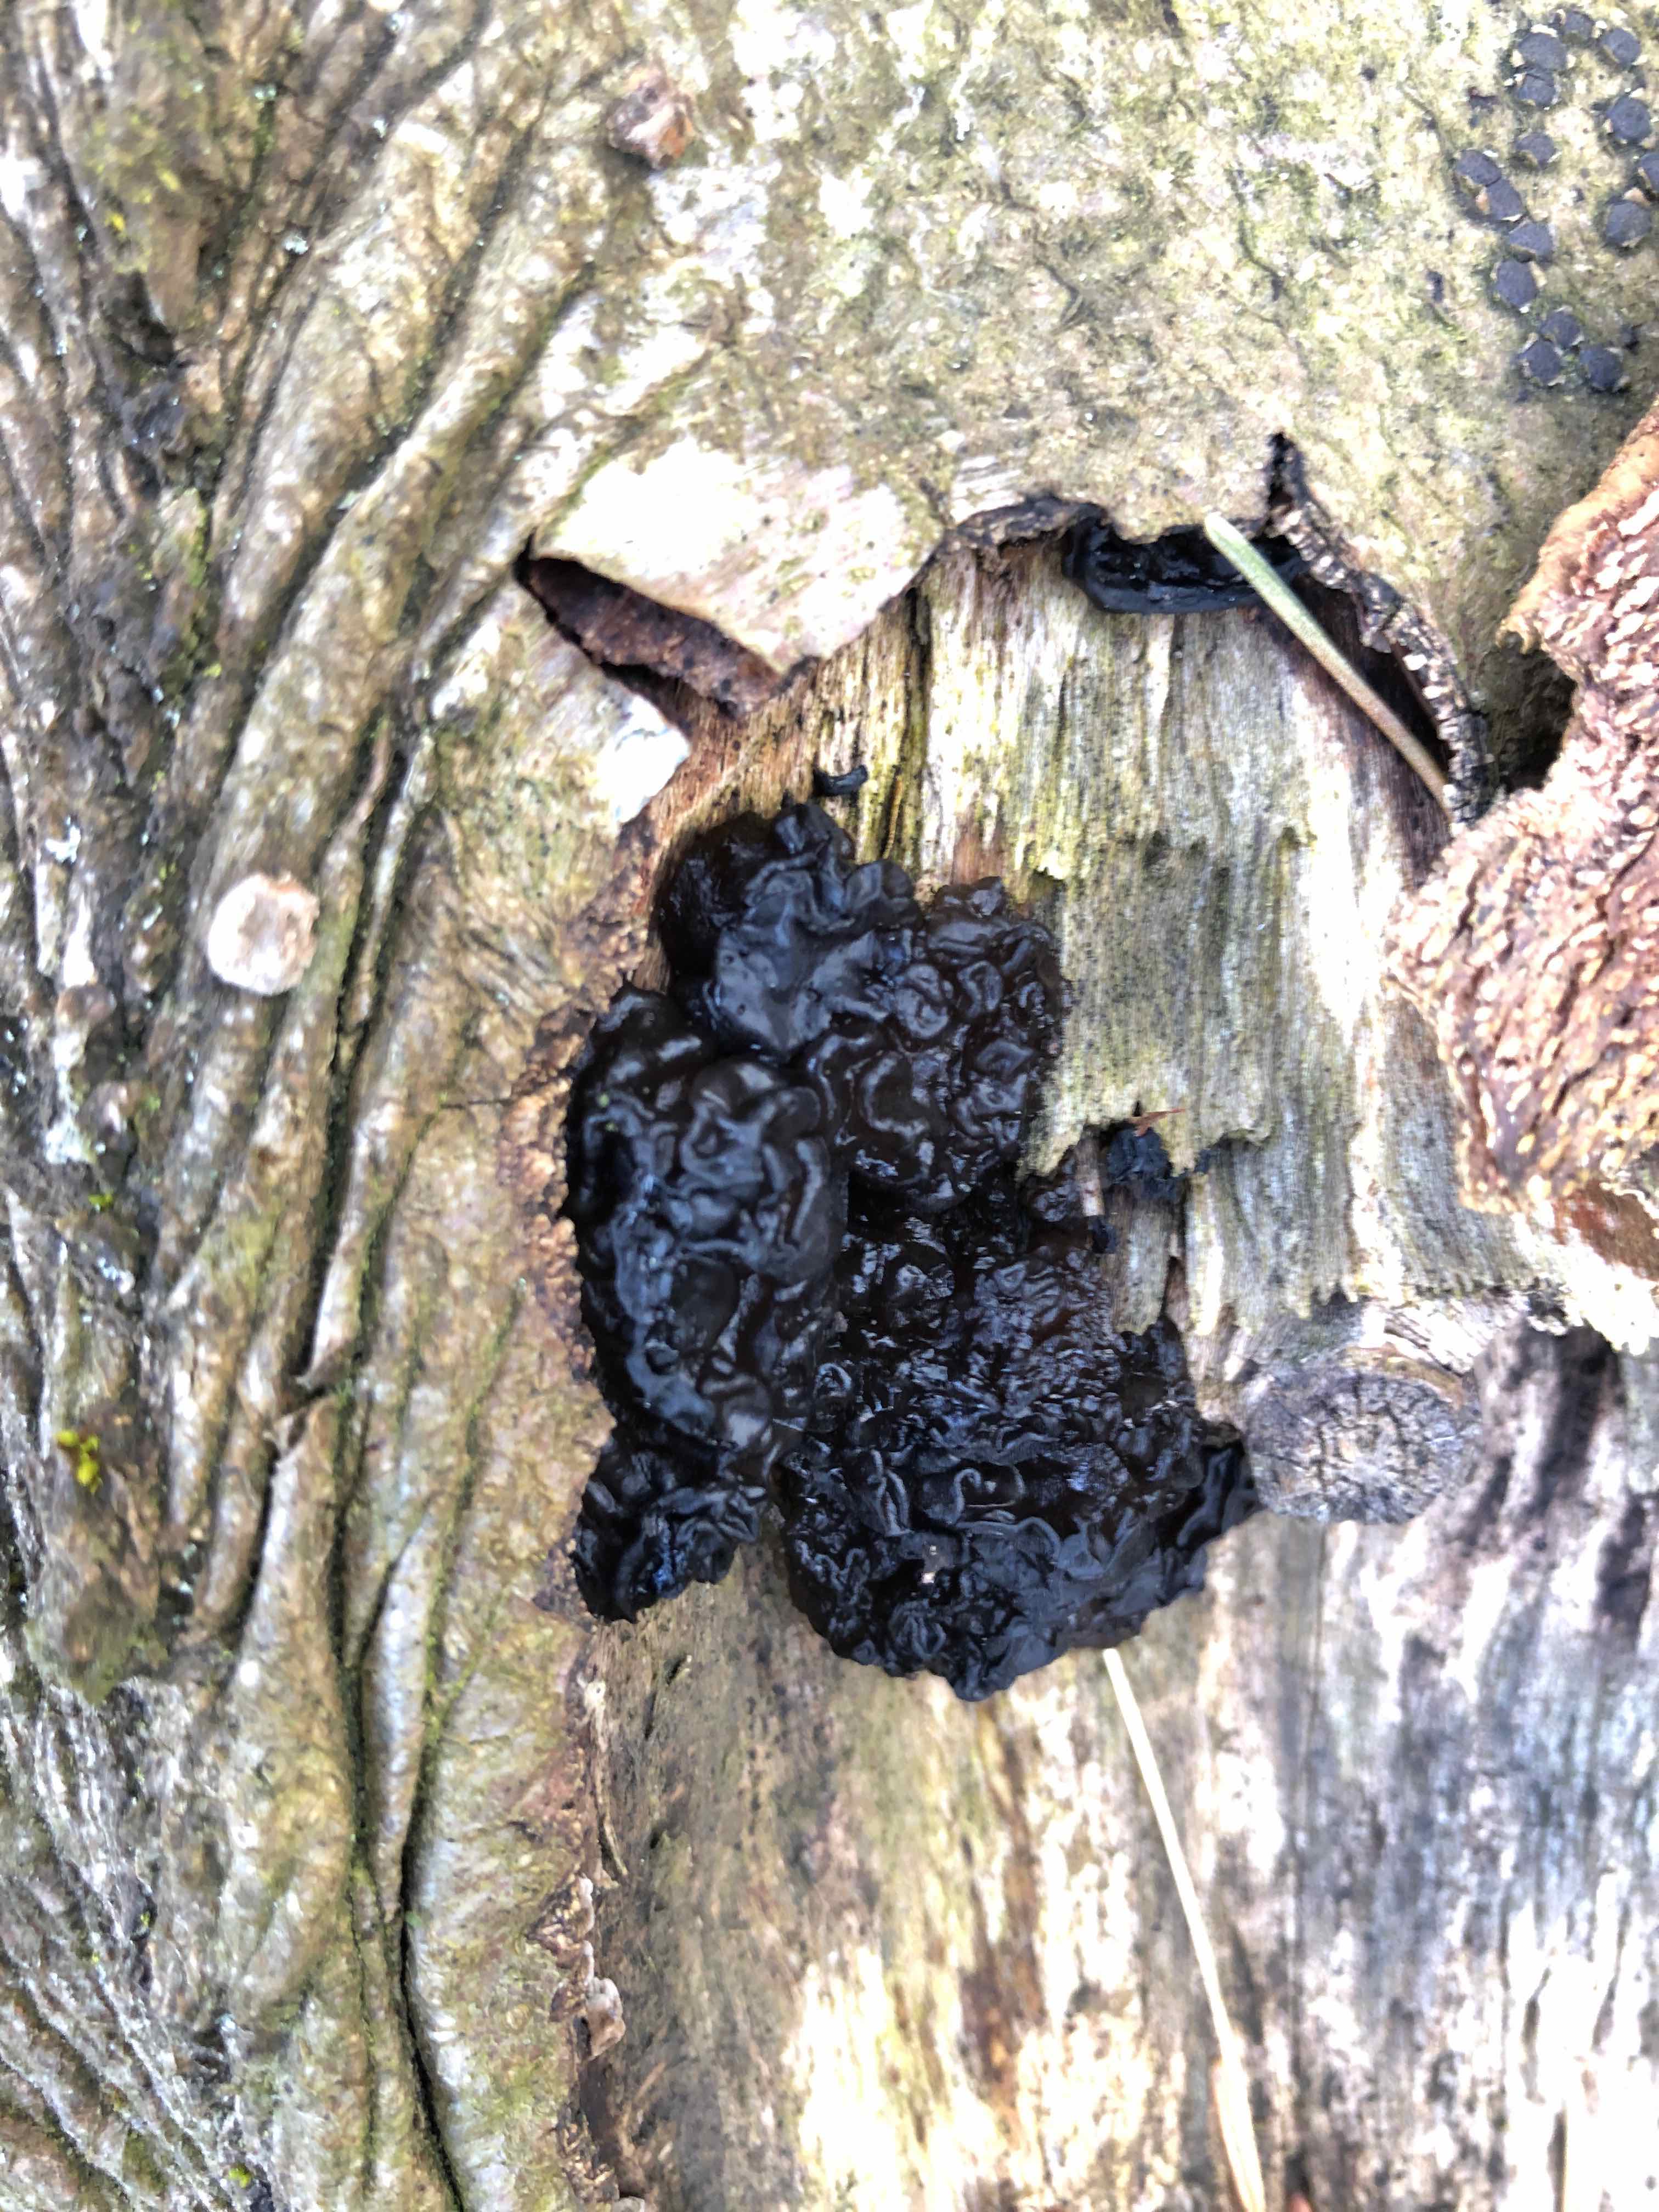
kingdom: Fungi
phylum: Basidiomycota
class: Agaricomycetes
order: Auriculariales
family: Auriculariaceae
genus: Exidia
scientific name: Exidia nigricans
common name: almindelig bævretop
